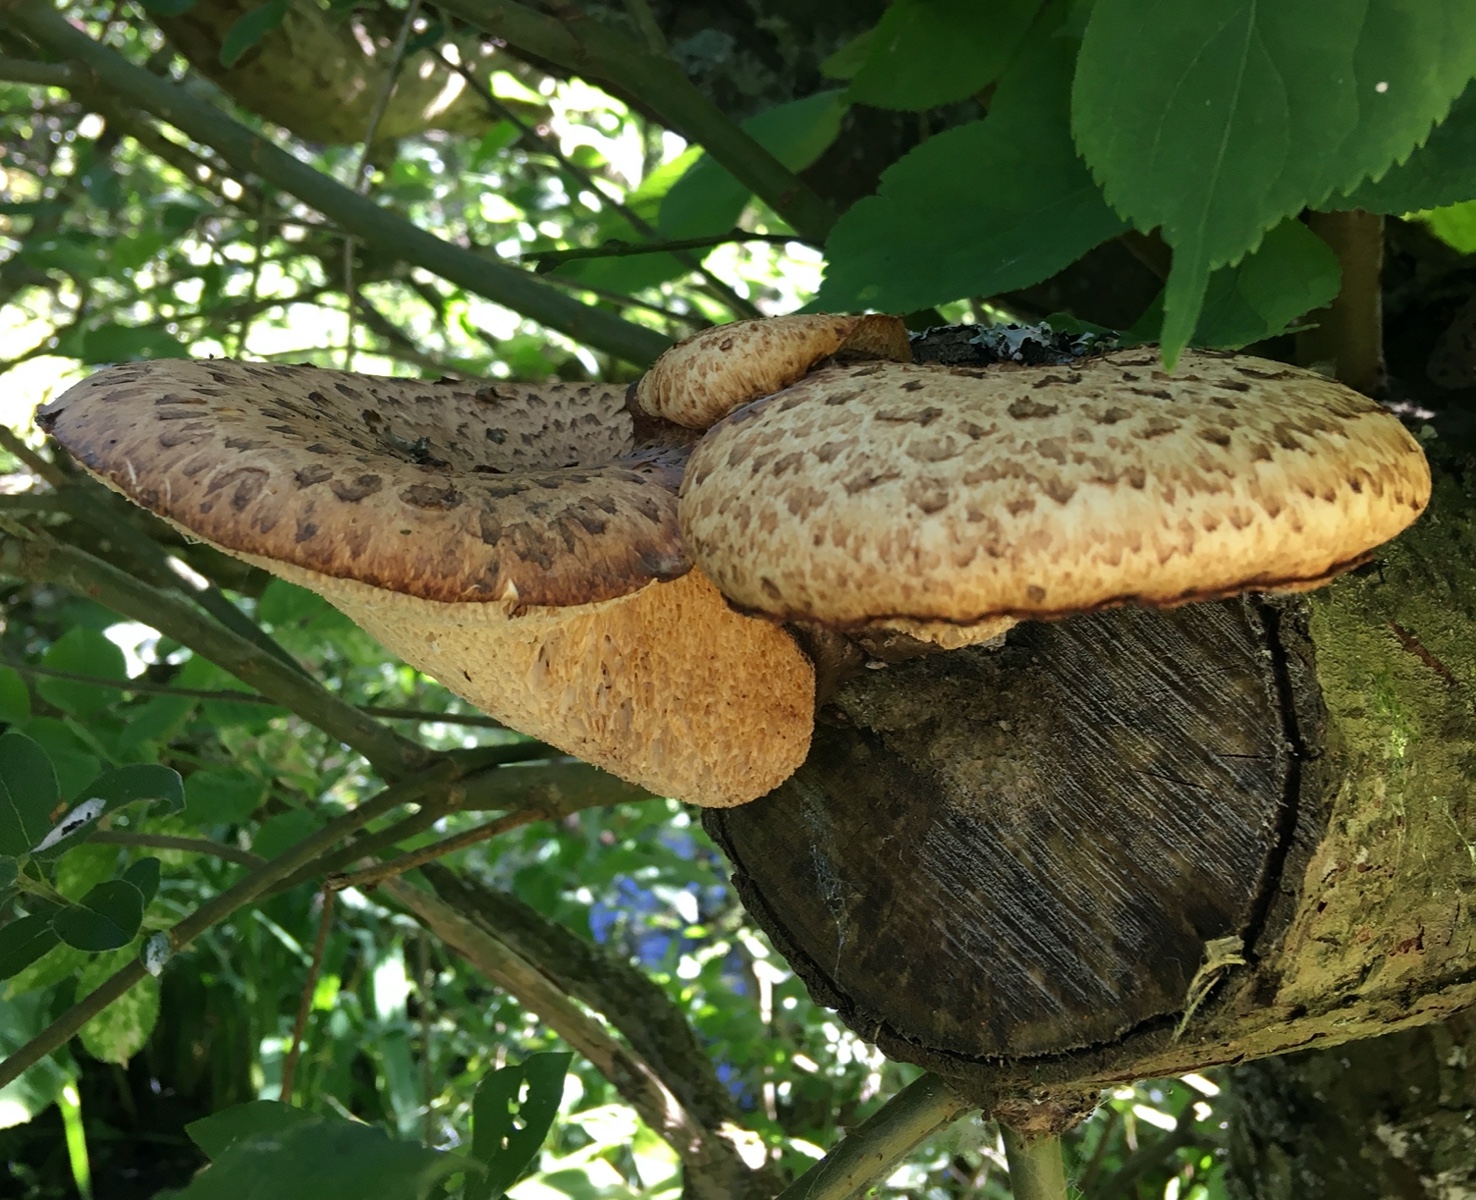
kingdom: Fungi
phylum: Basidiomycota
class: Agaricomycetes
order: Polyporales
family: Polyporaceae
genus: Cerioporus
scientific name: Cerioporus squamosus
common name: skællet stilkporesvamp
